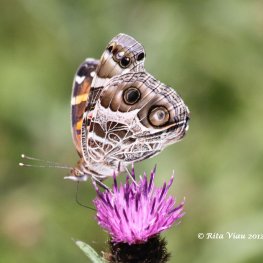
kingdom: Animalia
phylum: Arthropoda
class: Insecta
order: Lepidoptera
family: Nymphalidae
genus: Vanessa
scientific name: Vanessa virginiensis
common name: American Lady
